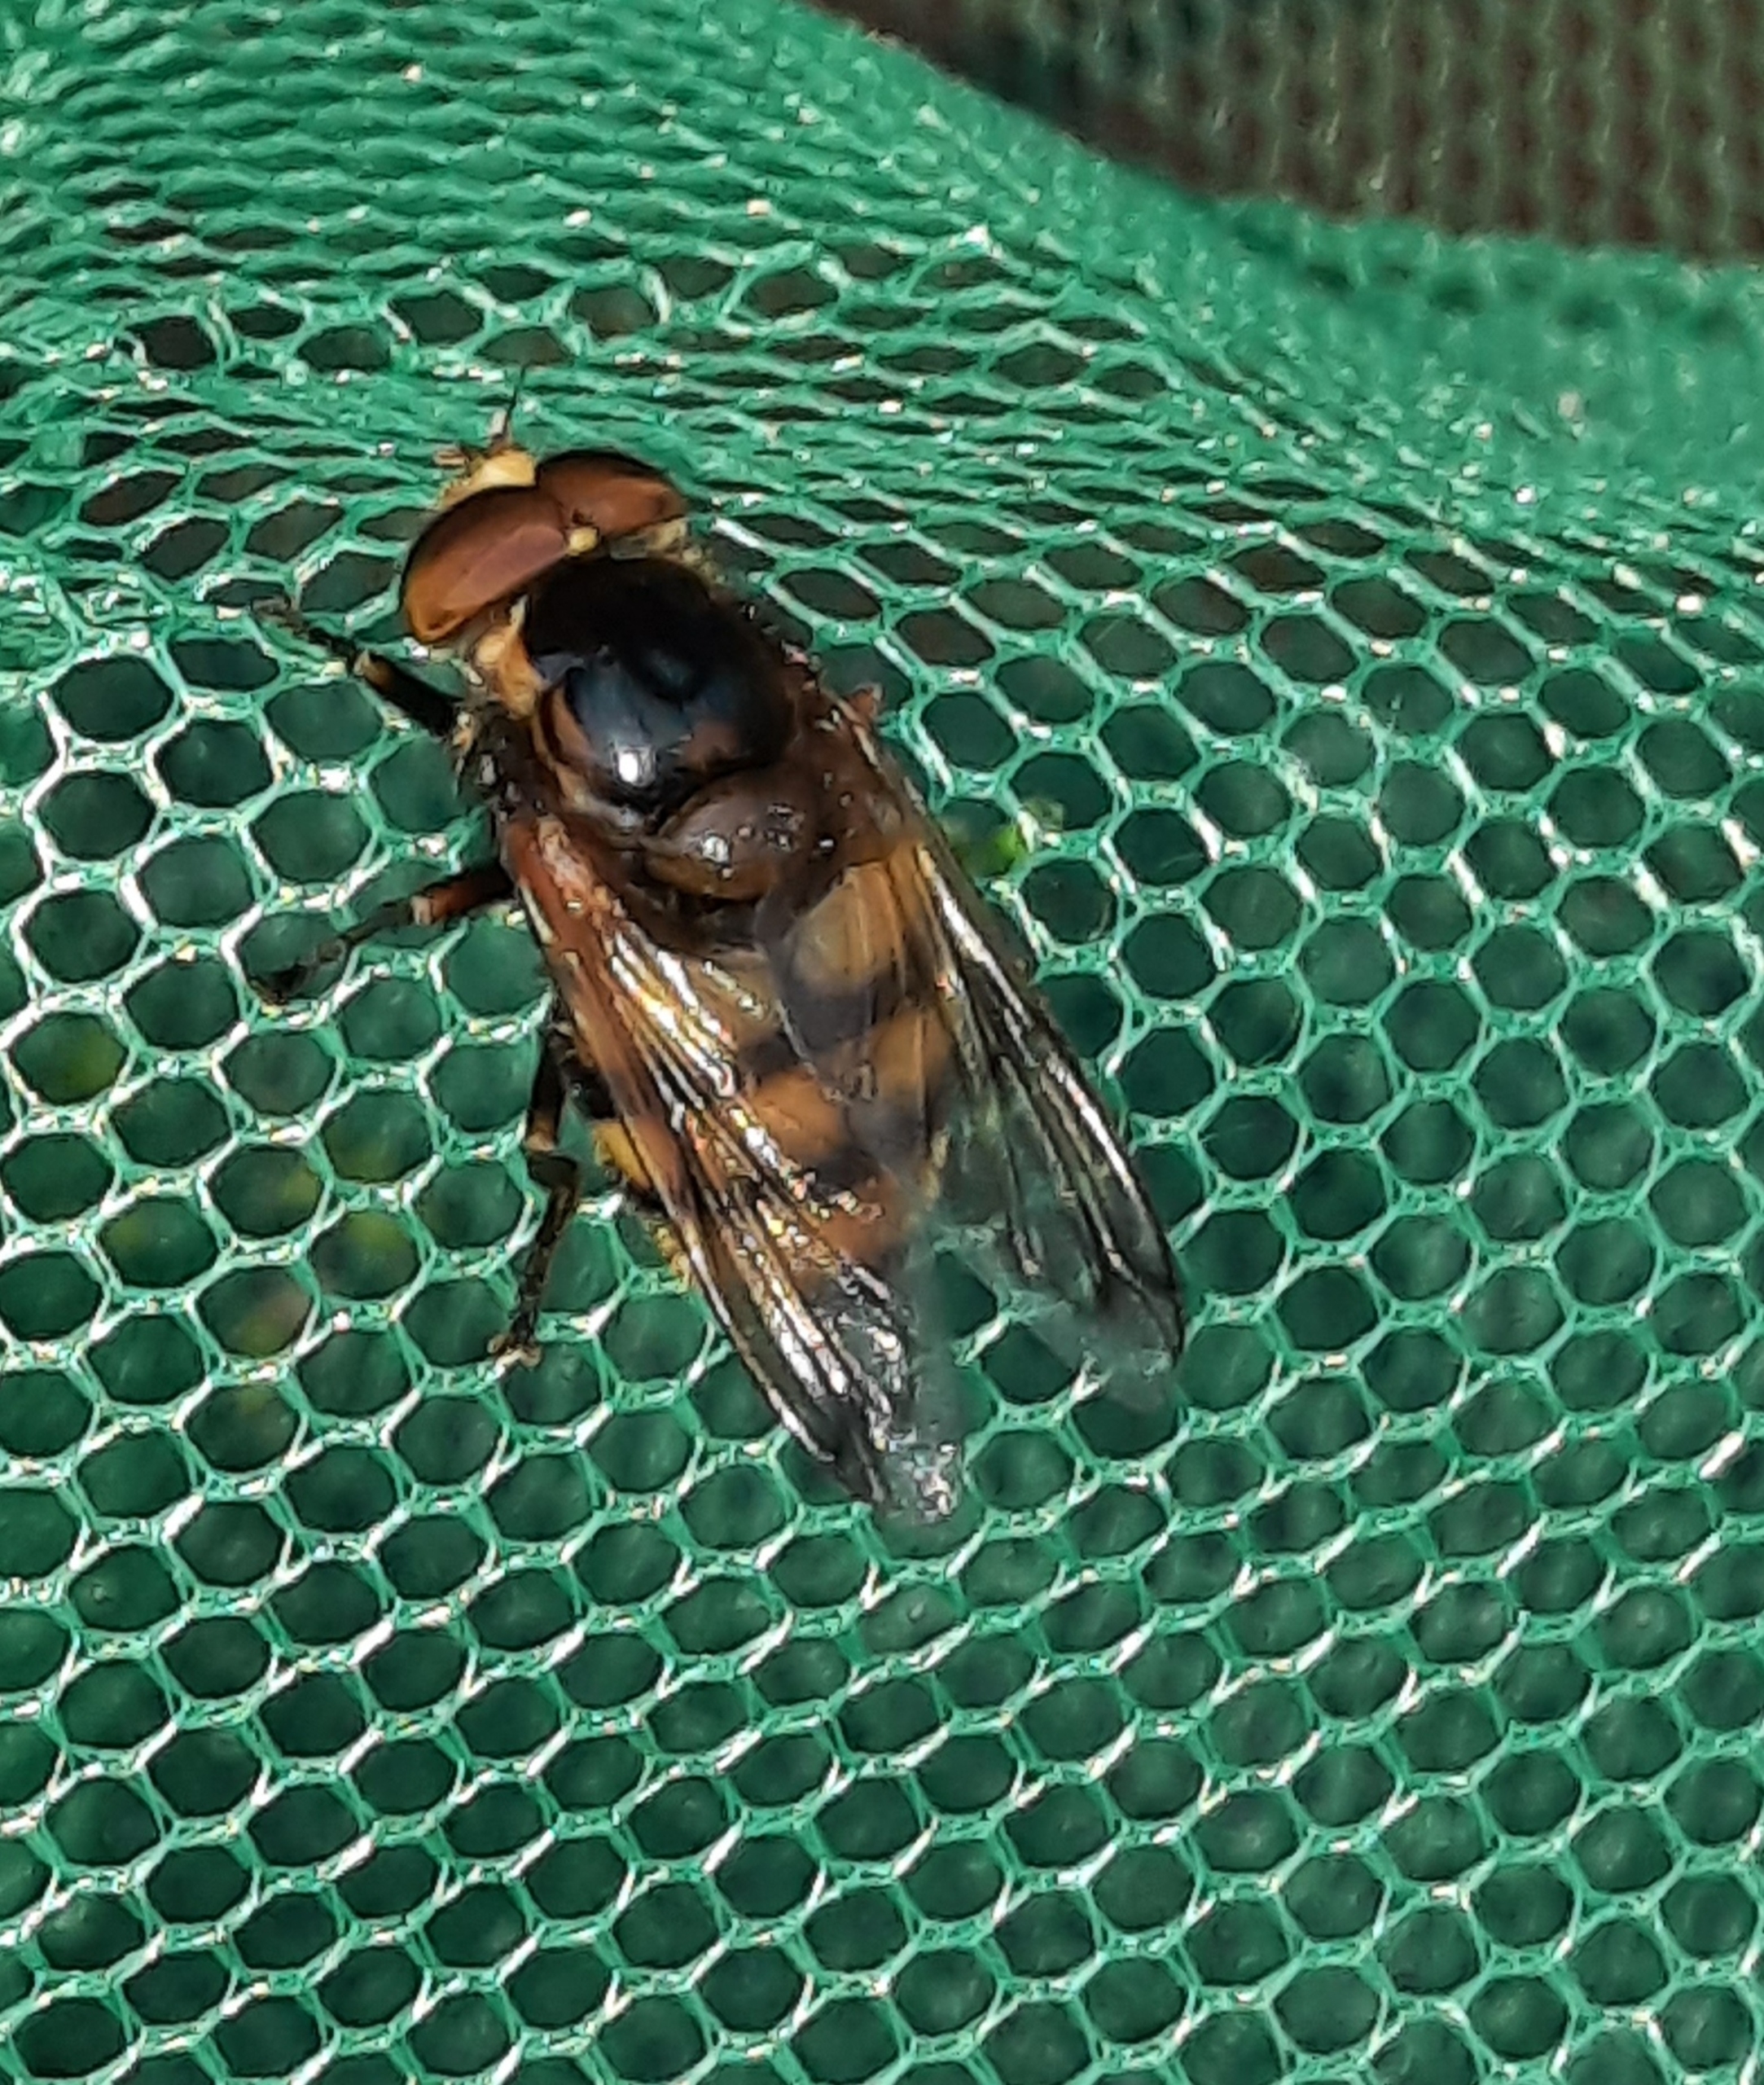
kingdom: Animalia
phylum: Arthropoda
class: Insecta
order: Diptera
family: Syrphidae
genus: Volucella
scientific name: Volucella zonaria
